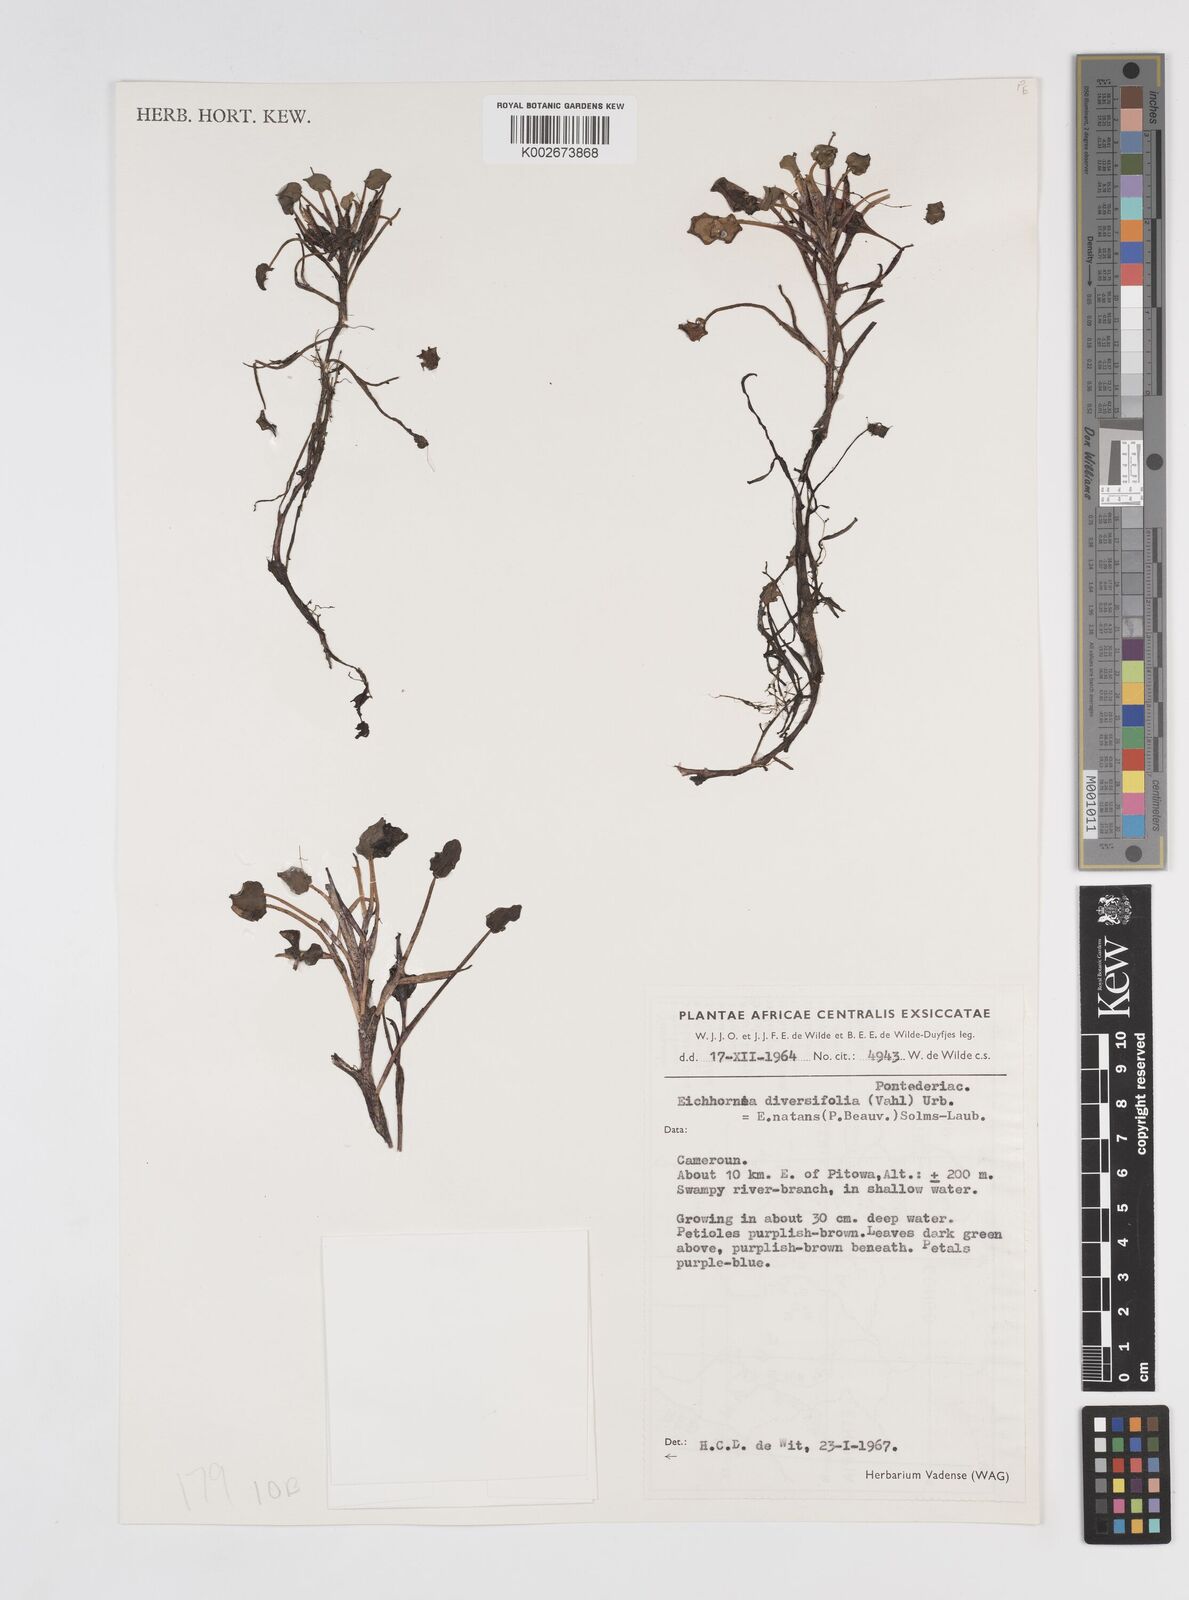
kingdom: Plantae
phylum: Tracheophyta
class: Liliopsida
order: Commelinales
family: Pontederiaceae
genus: Pontederia
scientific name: Pontederia natans
